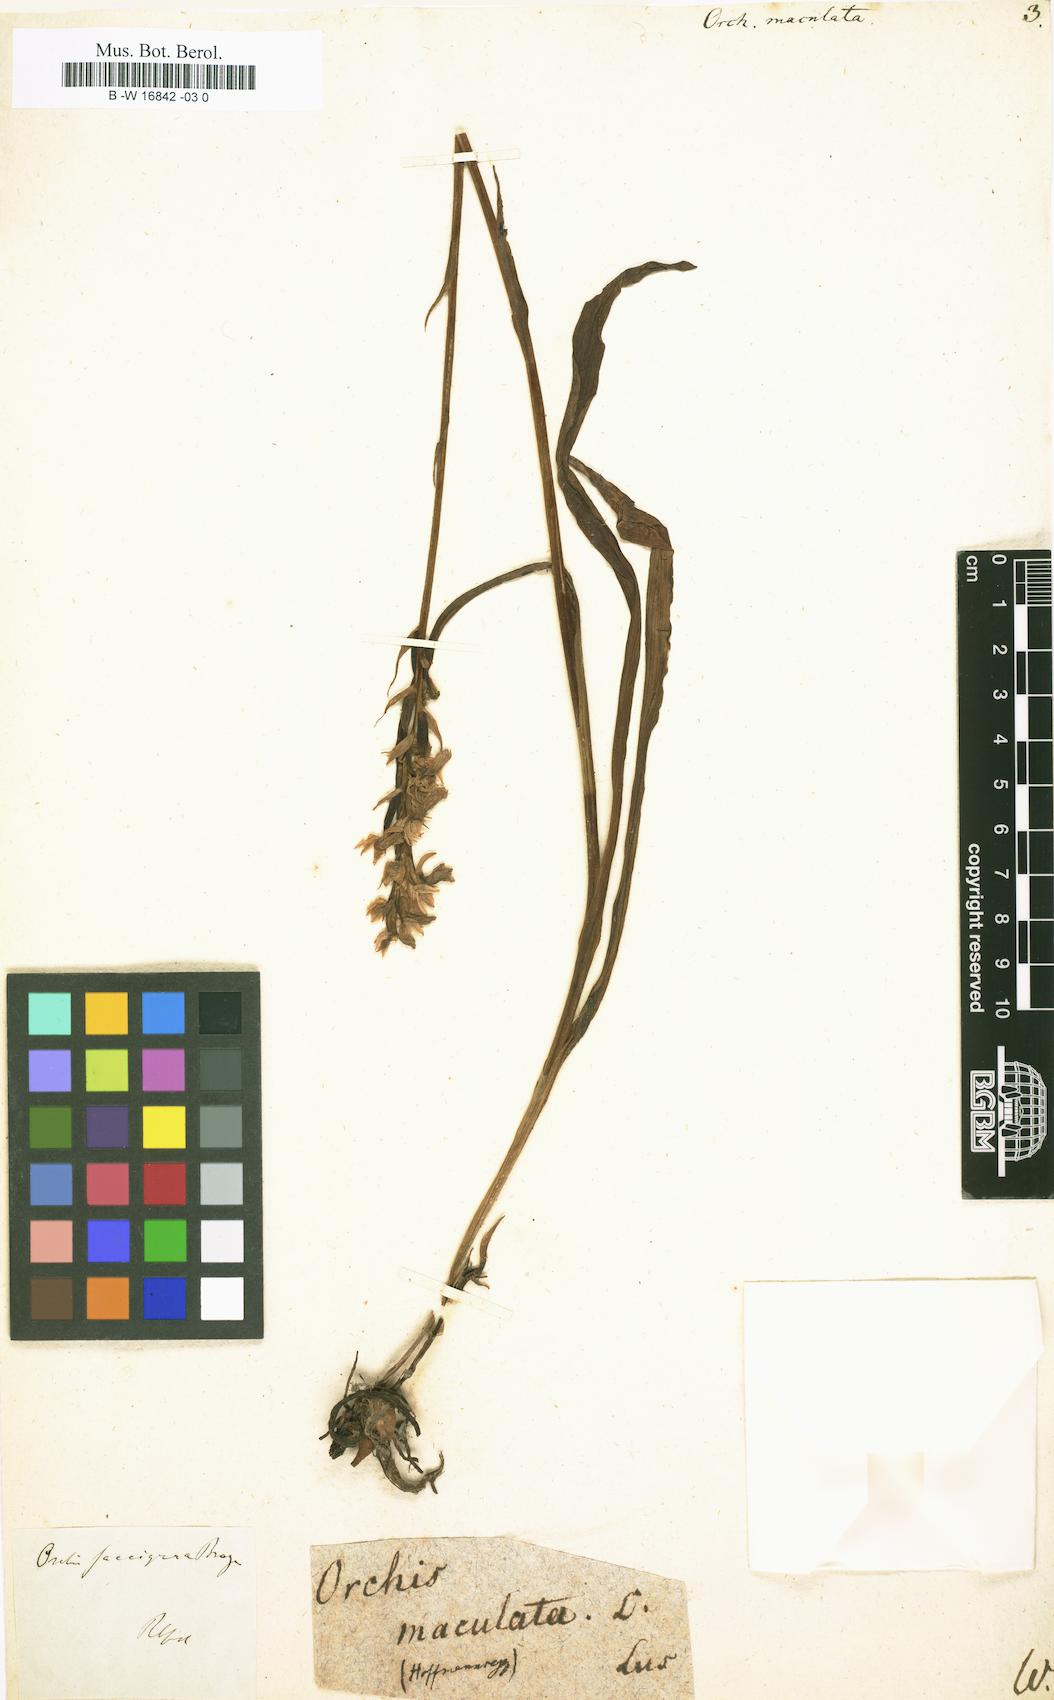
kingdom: Plantae
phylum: Tracheophyta
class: Liliopsida
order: Asparagales
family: Orchidaceae
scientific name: Orchidaceae
